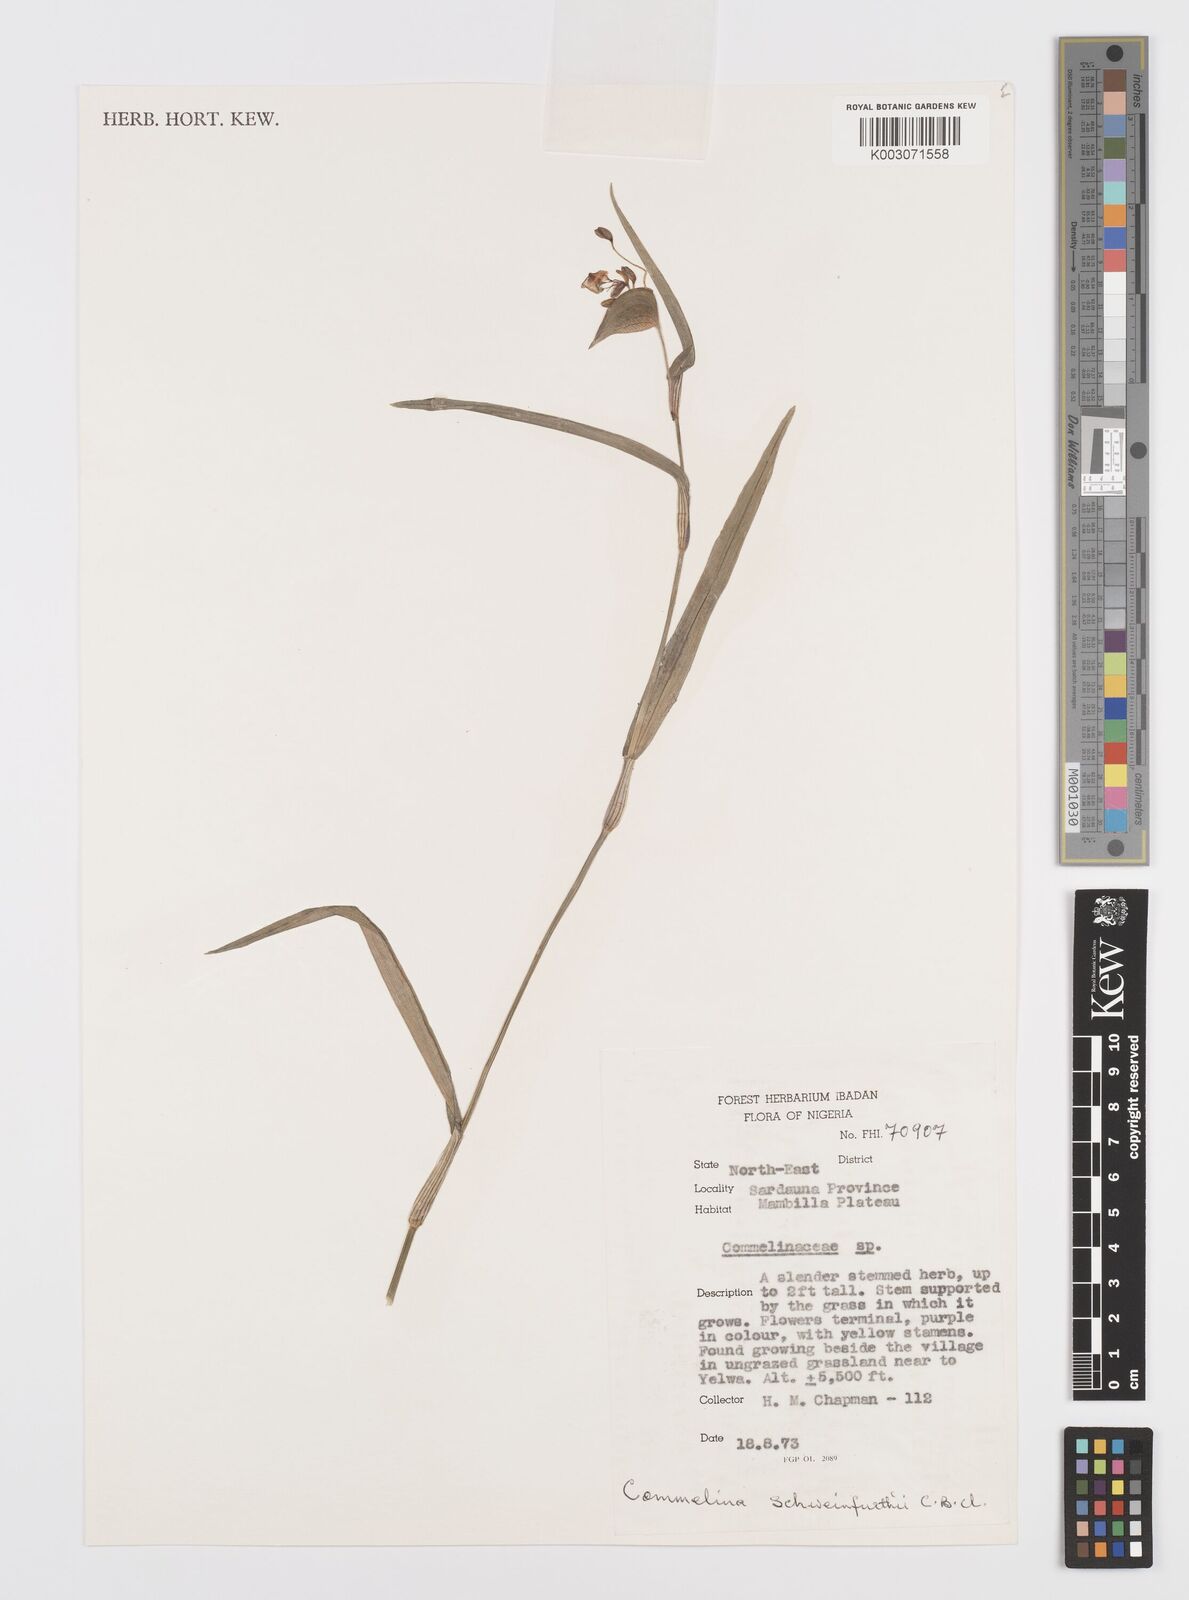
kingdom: Plantae
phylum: Tracheophyta
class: Liliopsida
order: Commelinales
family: Commelinaceae
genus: Commelina
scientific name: Commelina schweinfurthii
